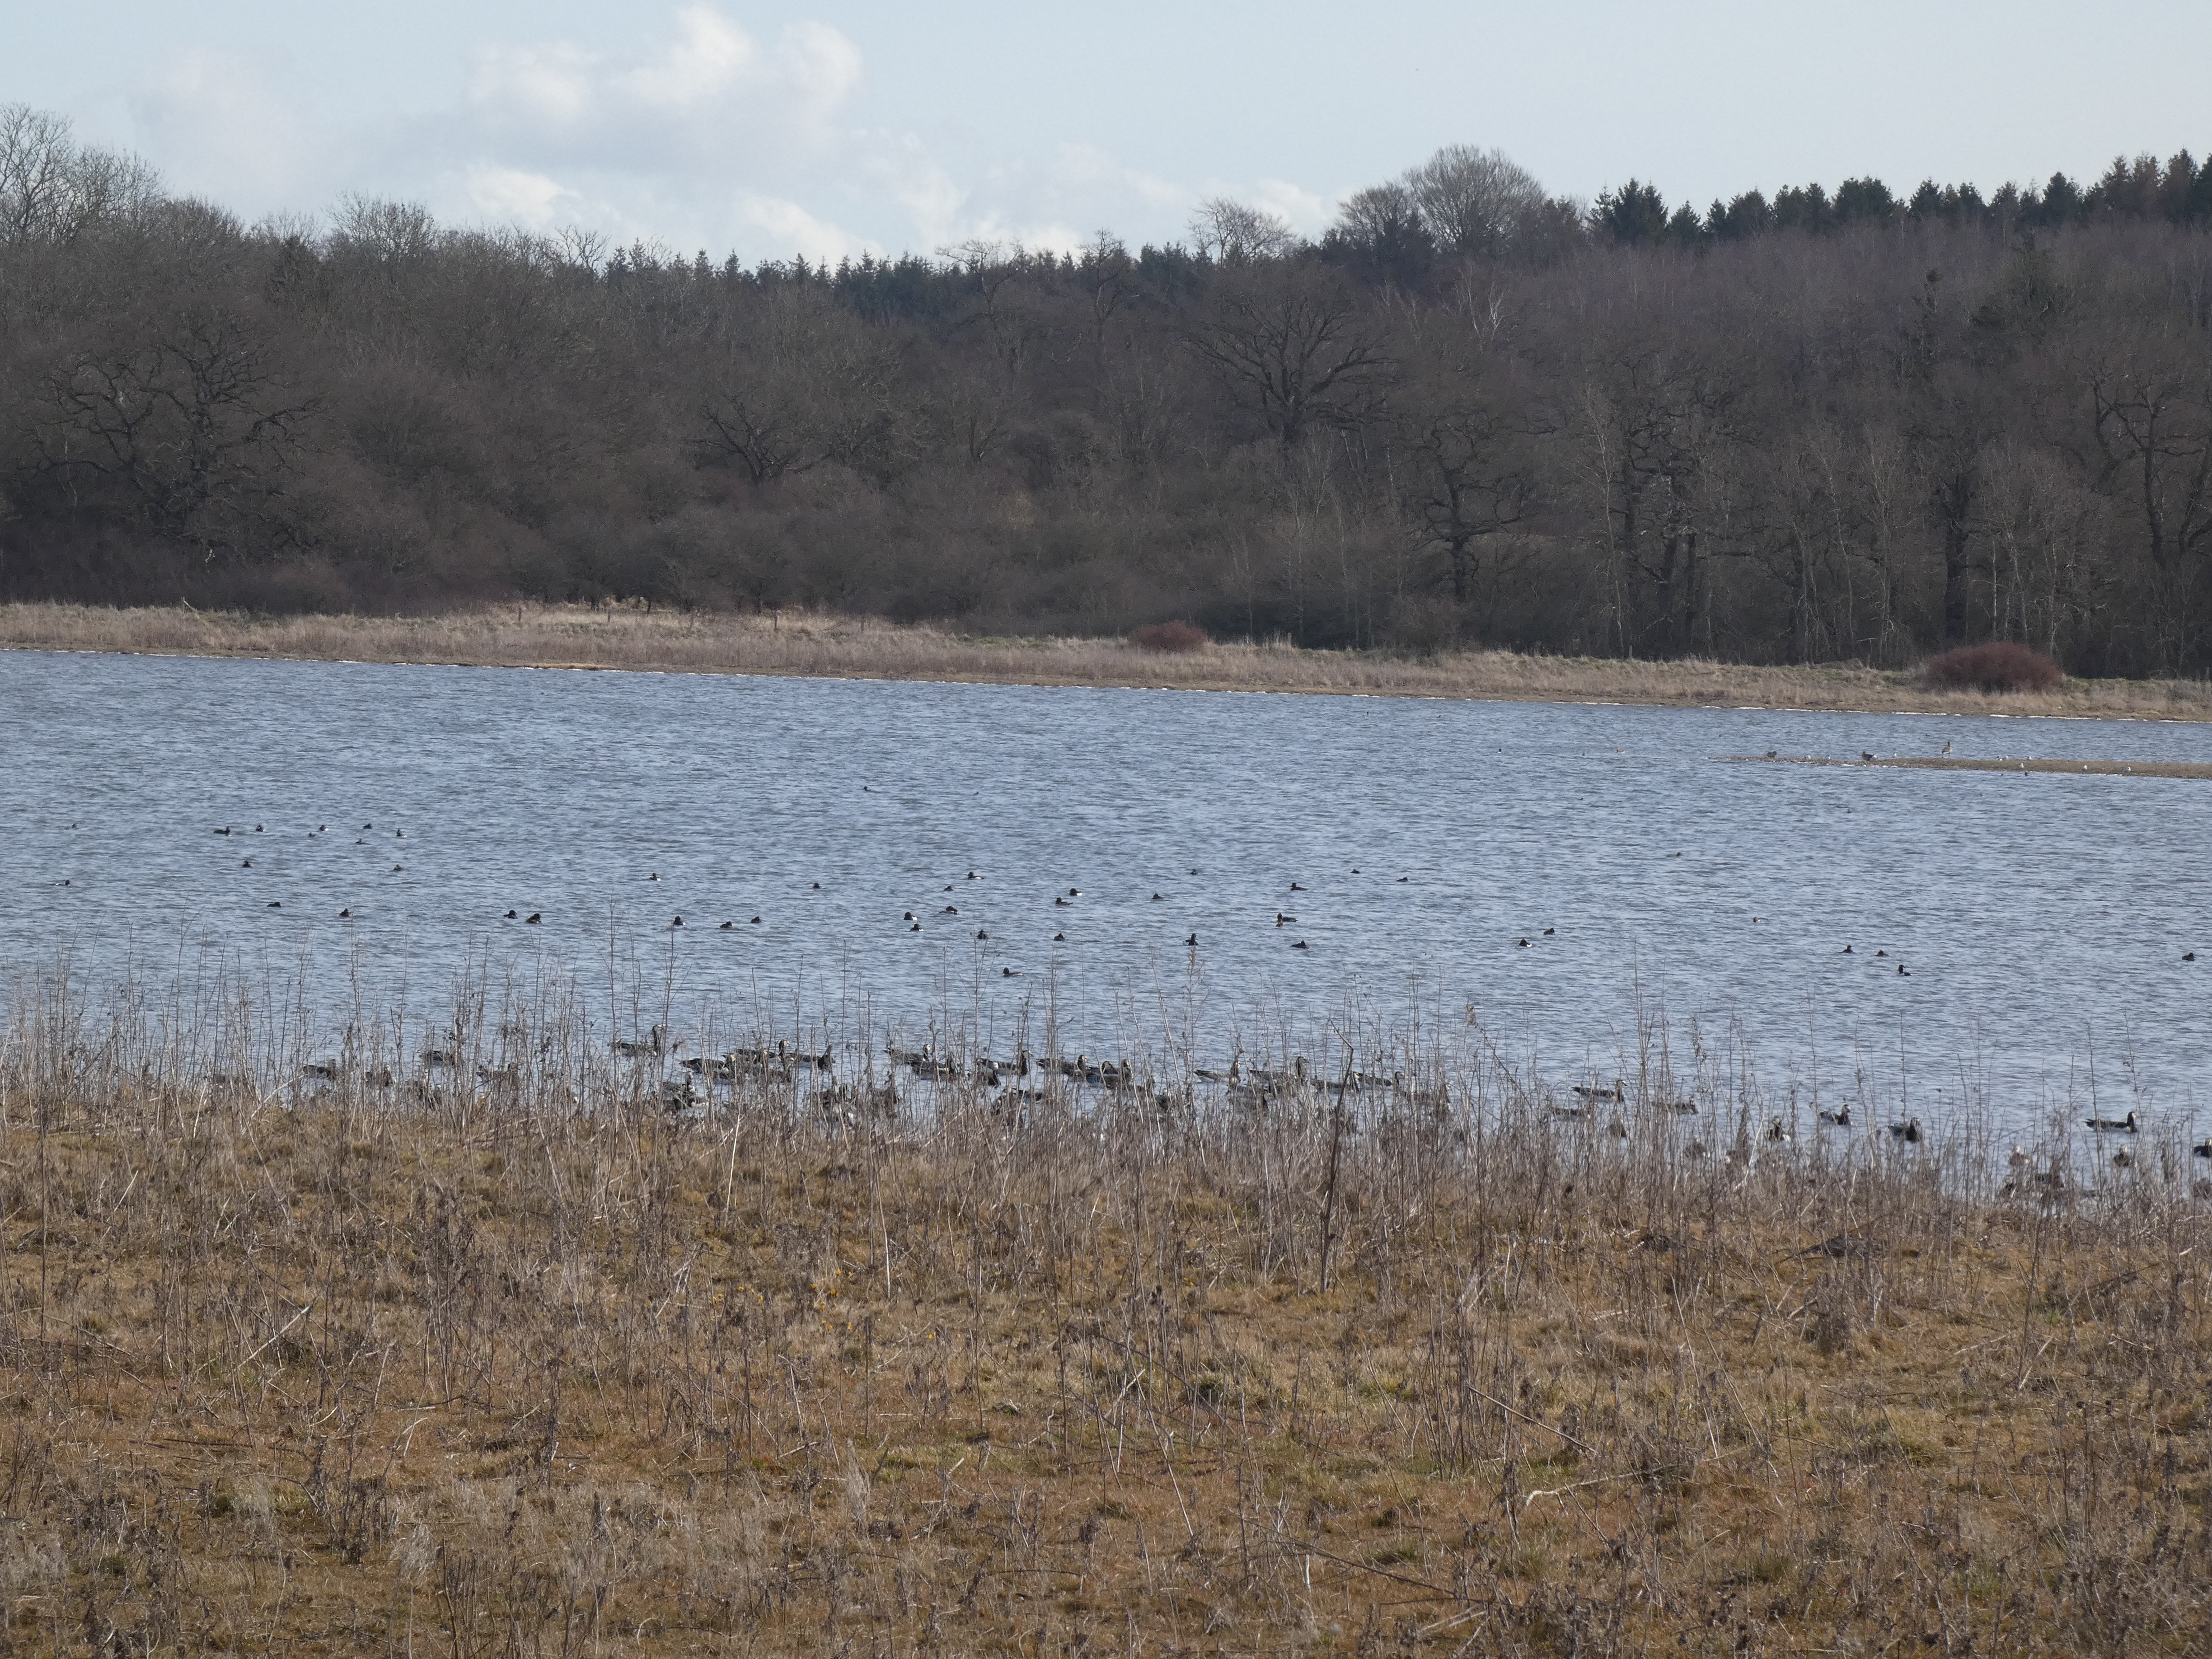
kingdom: Animalia
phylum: Chordata
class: Aves
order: Anseriformes
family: Anatidae
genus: Aythya
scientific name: Aythya fuligula
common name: Troldand
